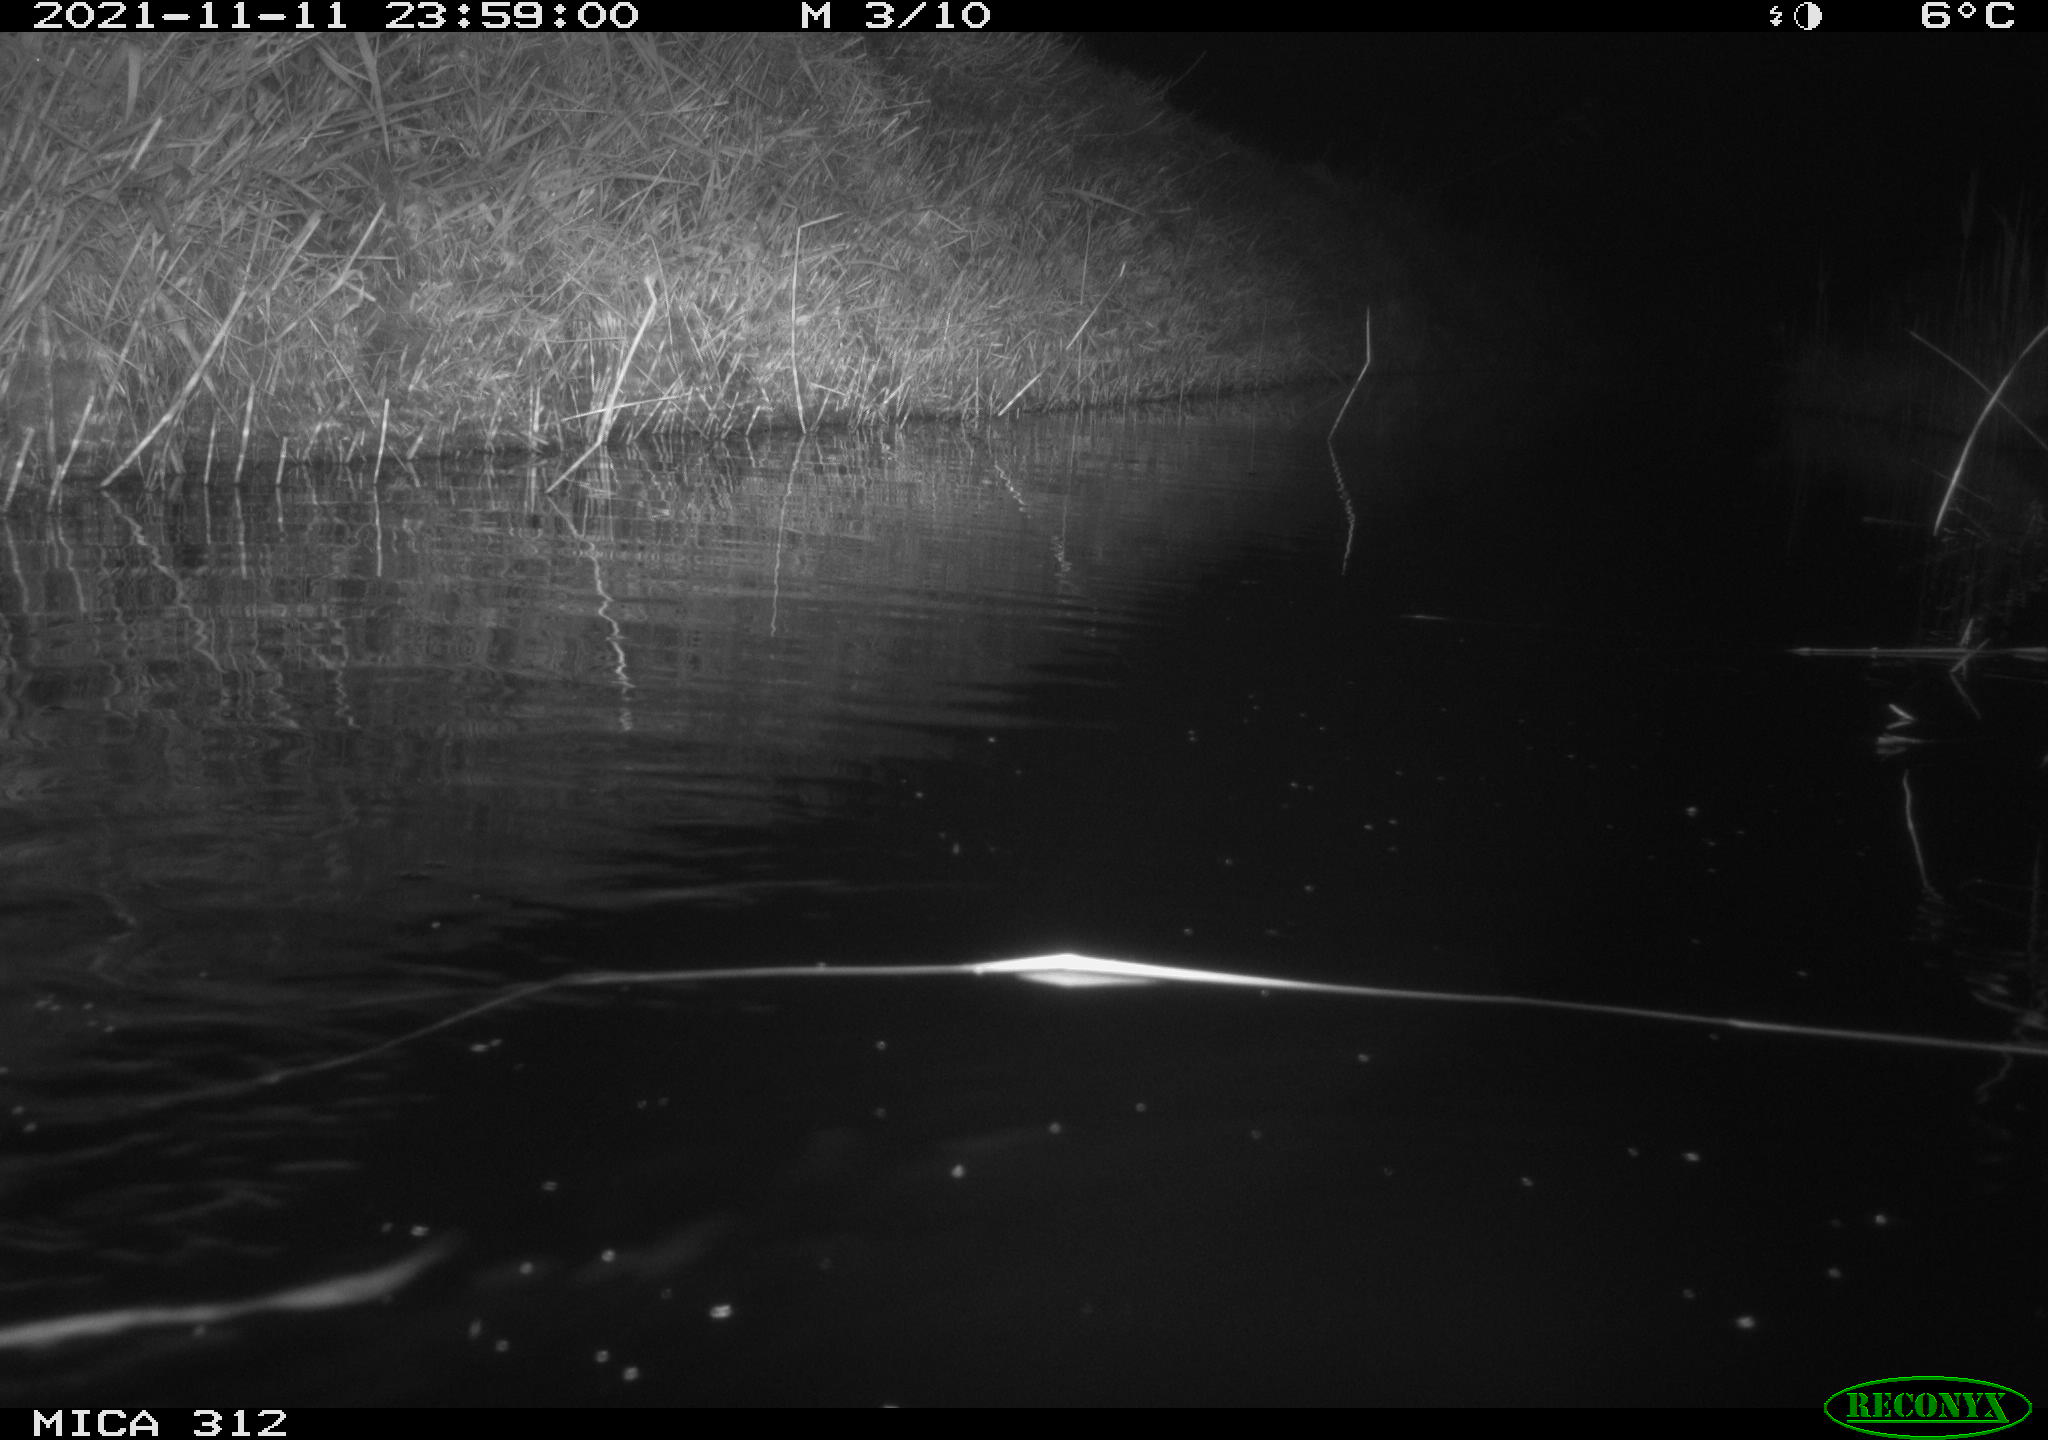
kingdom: Animalia
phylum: Chordata
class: Mammalia
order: Rodentia
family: Cricetidae
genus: Ondatra
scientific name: Ondatra zibethicus
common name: Muskrat
